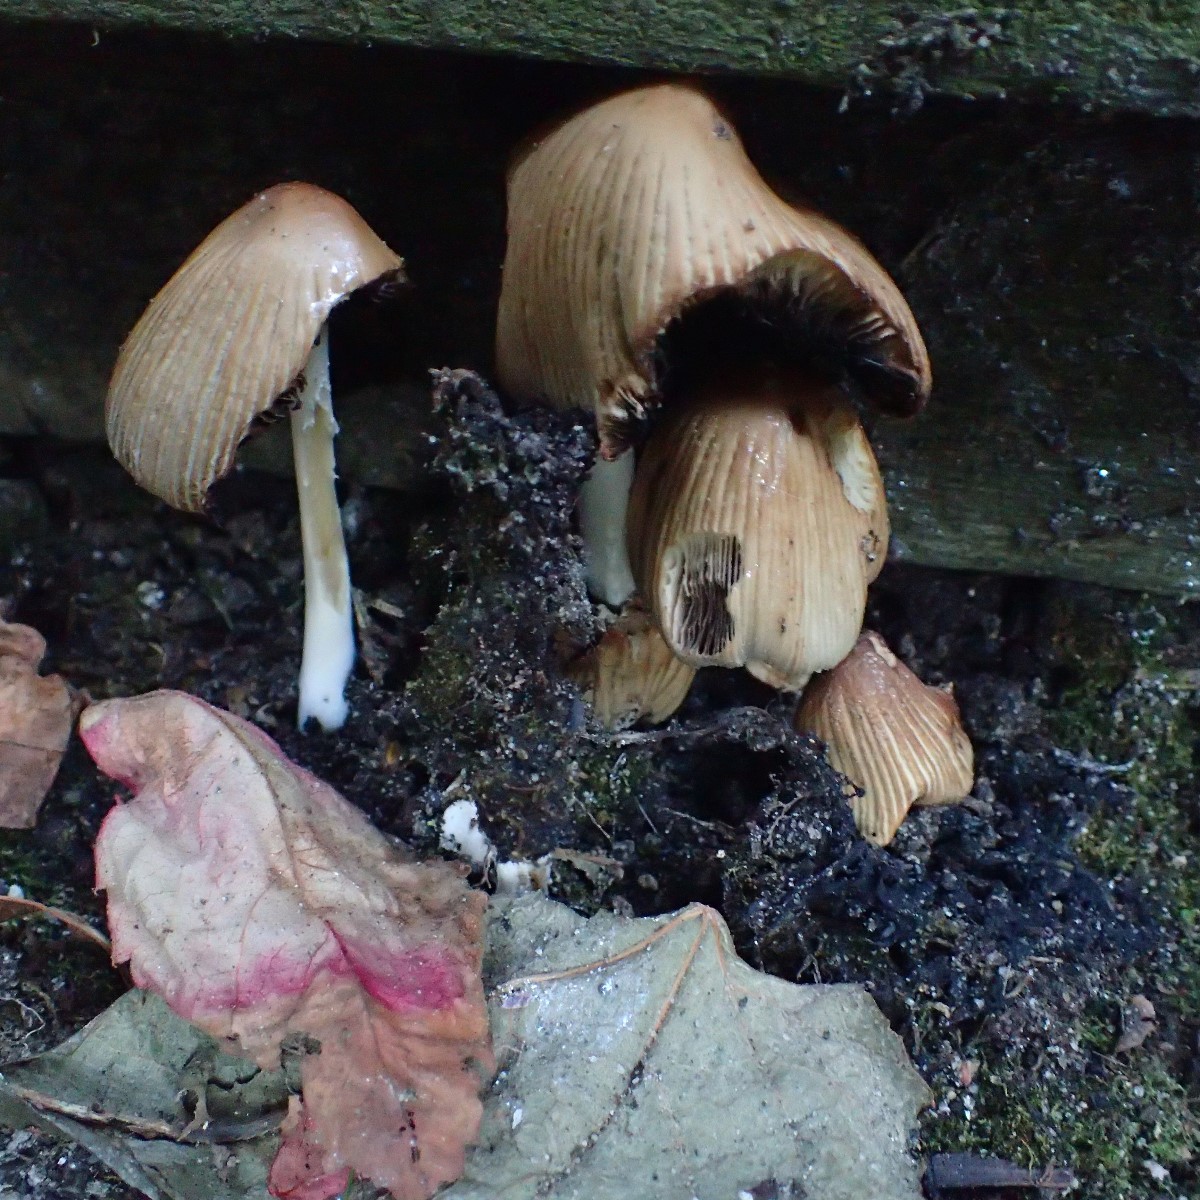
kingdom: Fungi
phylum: Basidiomycota
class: Agaricomycetes
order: Agaricales
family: Psathyrellaceae
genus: Coprinellus
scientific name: Coprinellus micaceus
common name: glimmer-blækhat
